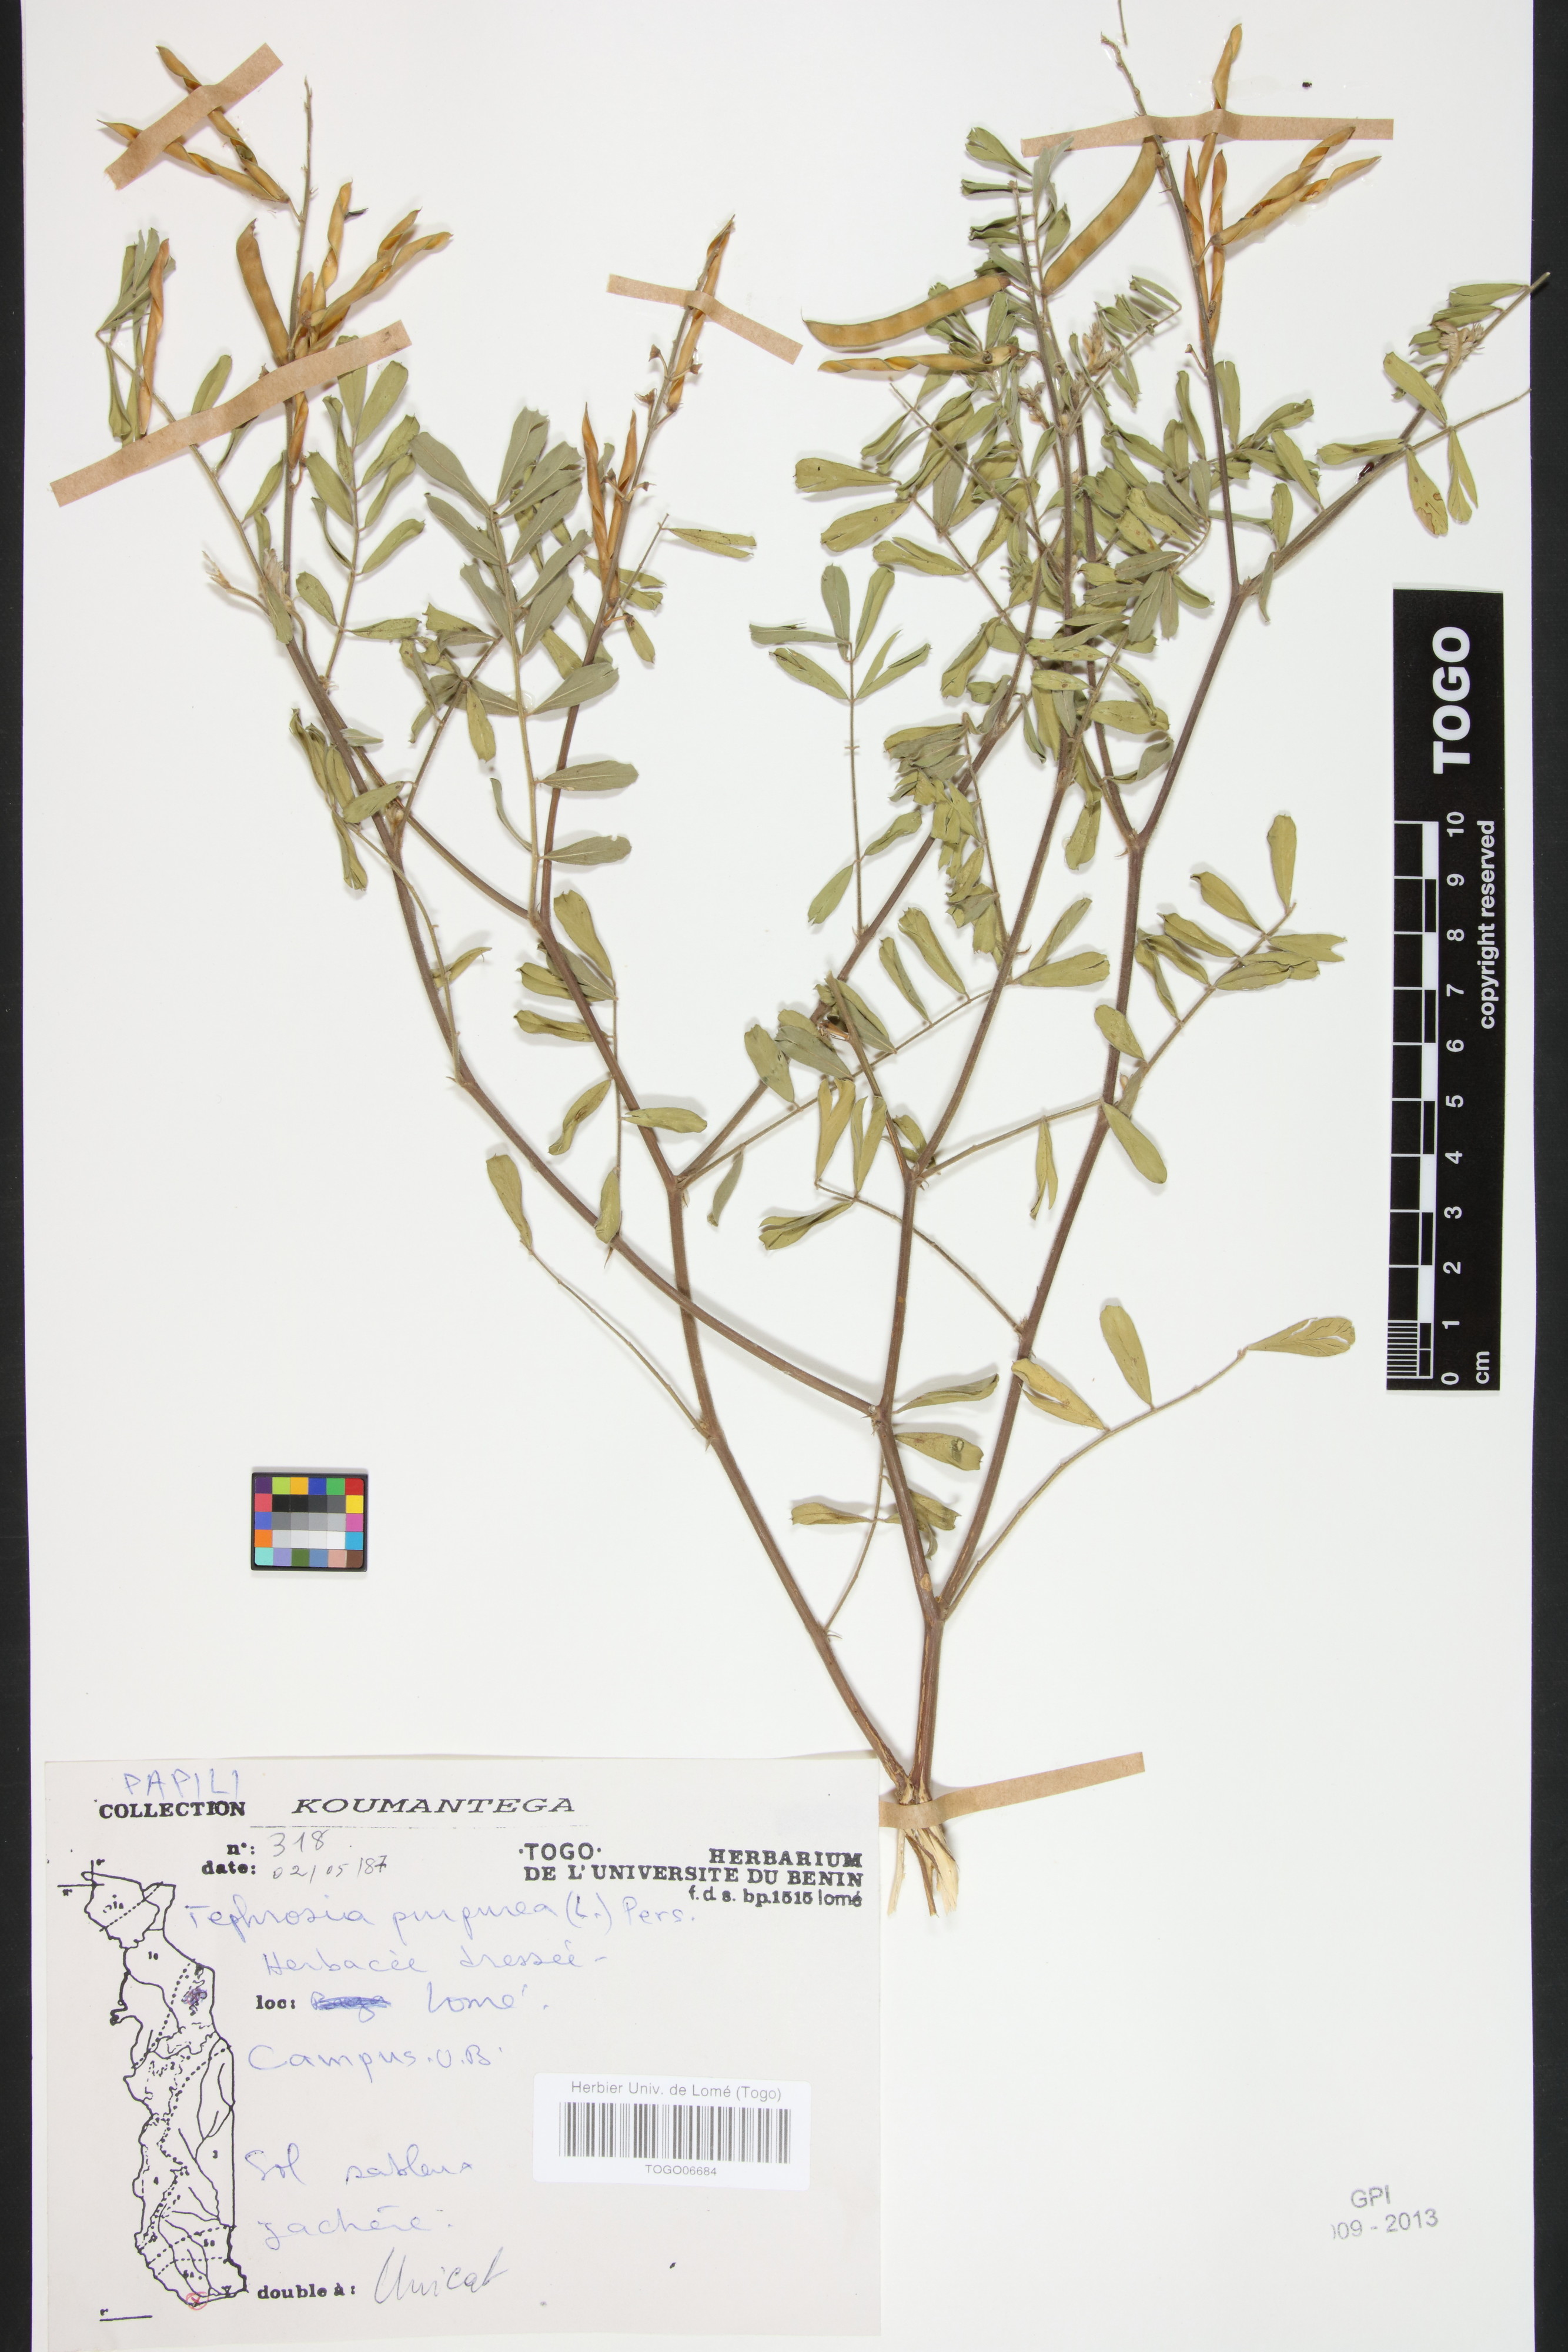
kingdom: Plantae
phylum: Tracheophyta
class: Magnoliopsida
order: Fabales
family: Fabaceae
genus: Tephrosia
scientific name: Tephrosia purpurea
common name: Fishpoison
